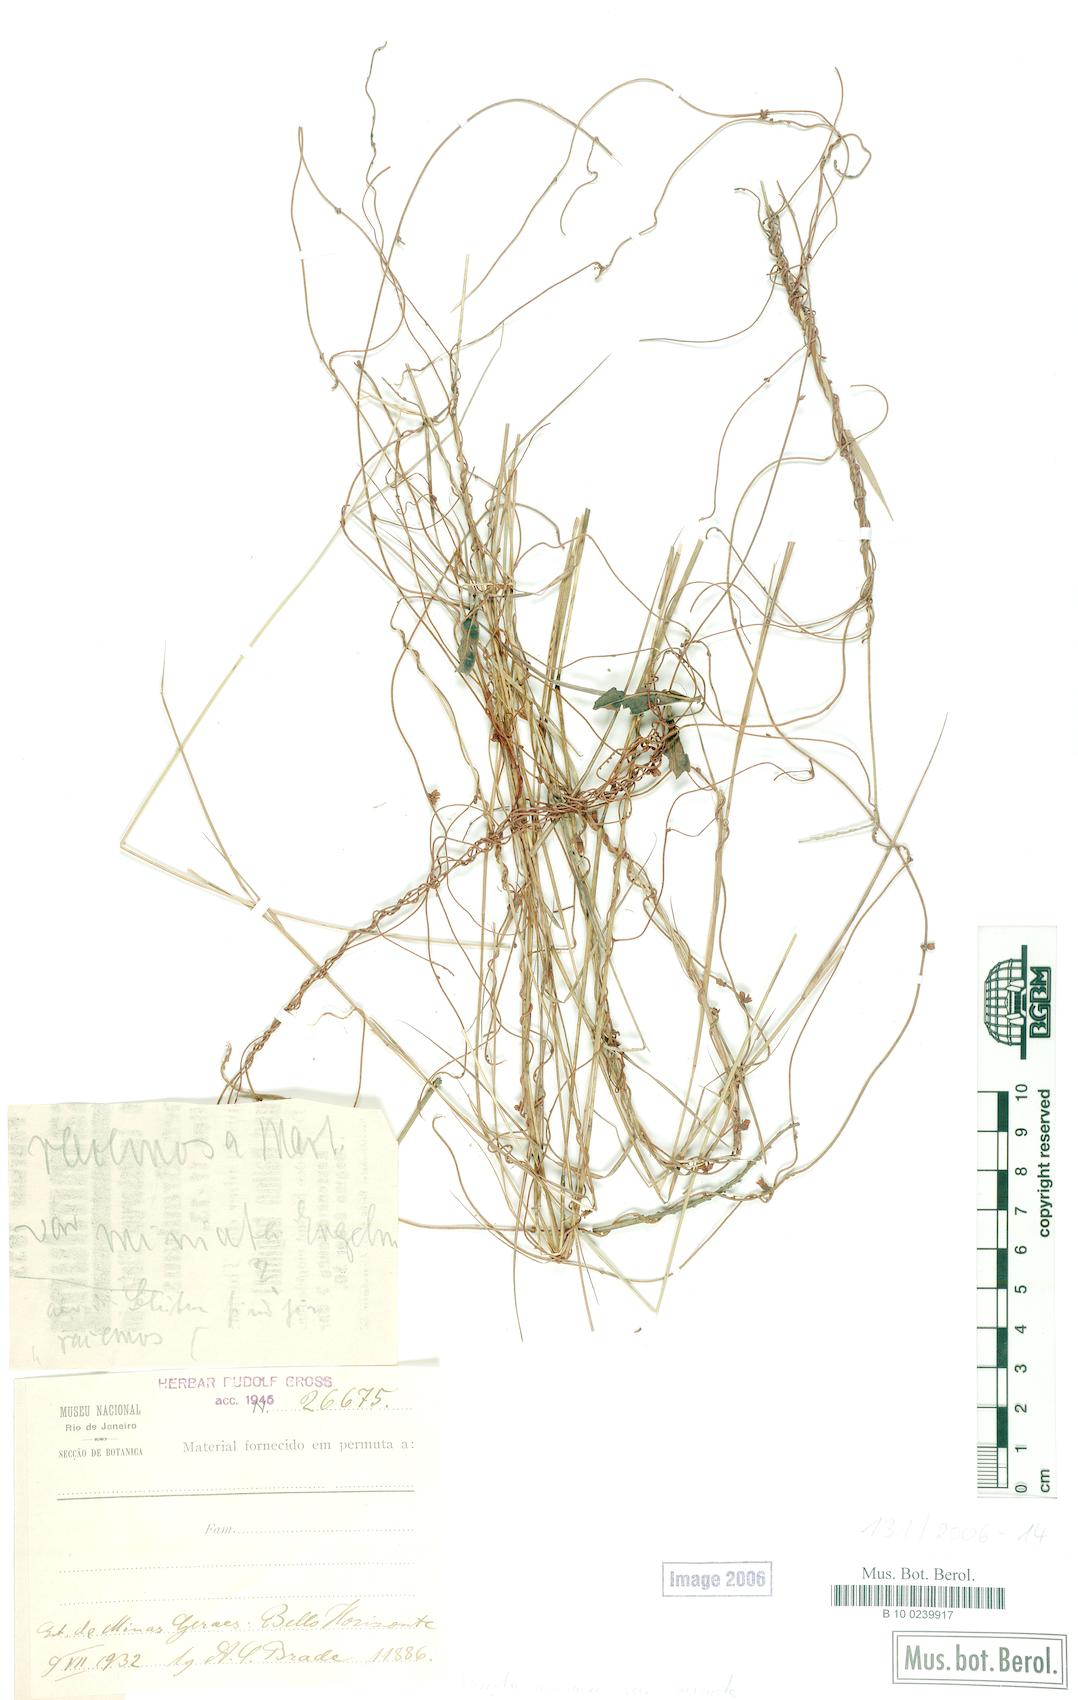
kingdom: Plantae
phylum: Tracheophyta
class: Magnoliopsida
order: Solanales
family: Convolvulaceae
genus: Cuscuta
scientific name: Cuscuta racemosa
